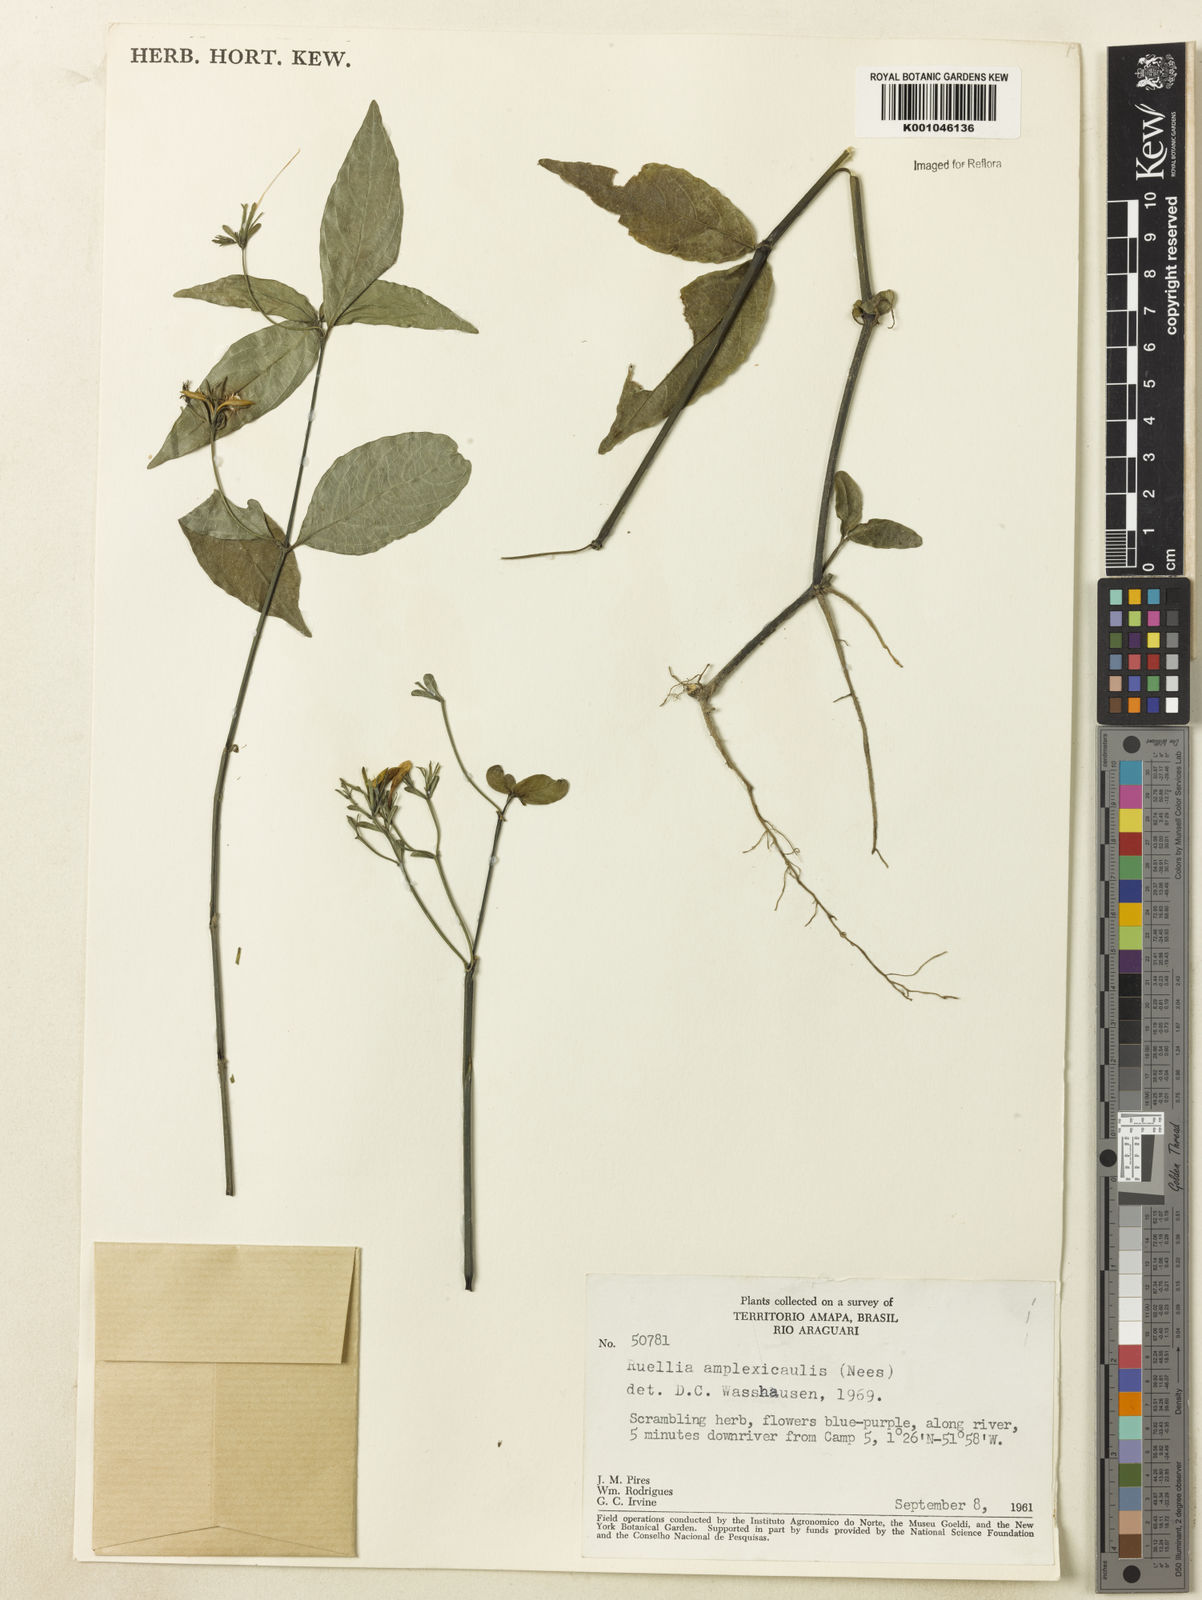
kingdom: Plantae
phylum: Tracheophyta
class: Magnoliopsida
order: Lamiales
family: Acanthaceae
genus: Ruellia
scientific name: Ruellia amplexicaulis
